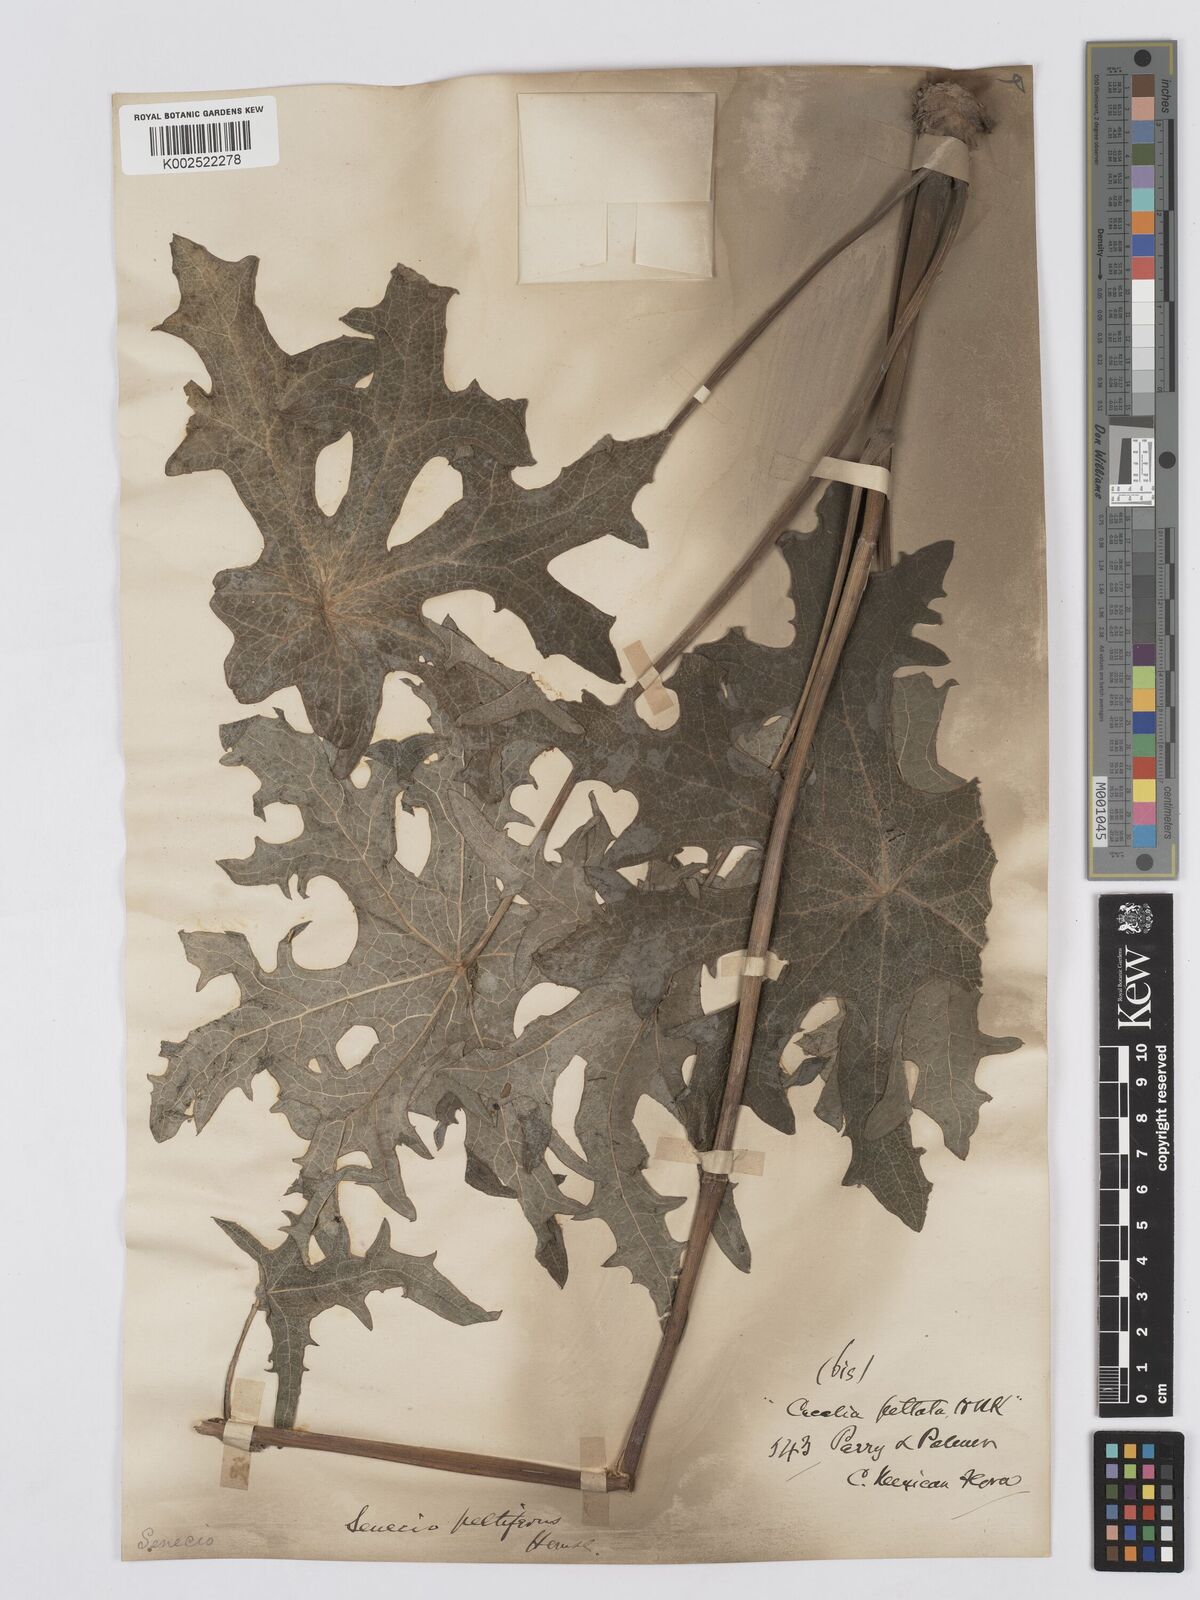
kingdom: Plantae
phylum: Tracheophyta
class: Magnoliopsida
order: Asterales
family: Asteraceae
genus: Psacalium
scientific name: Psacalium peltatum
